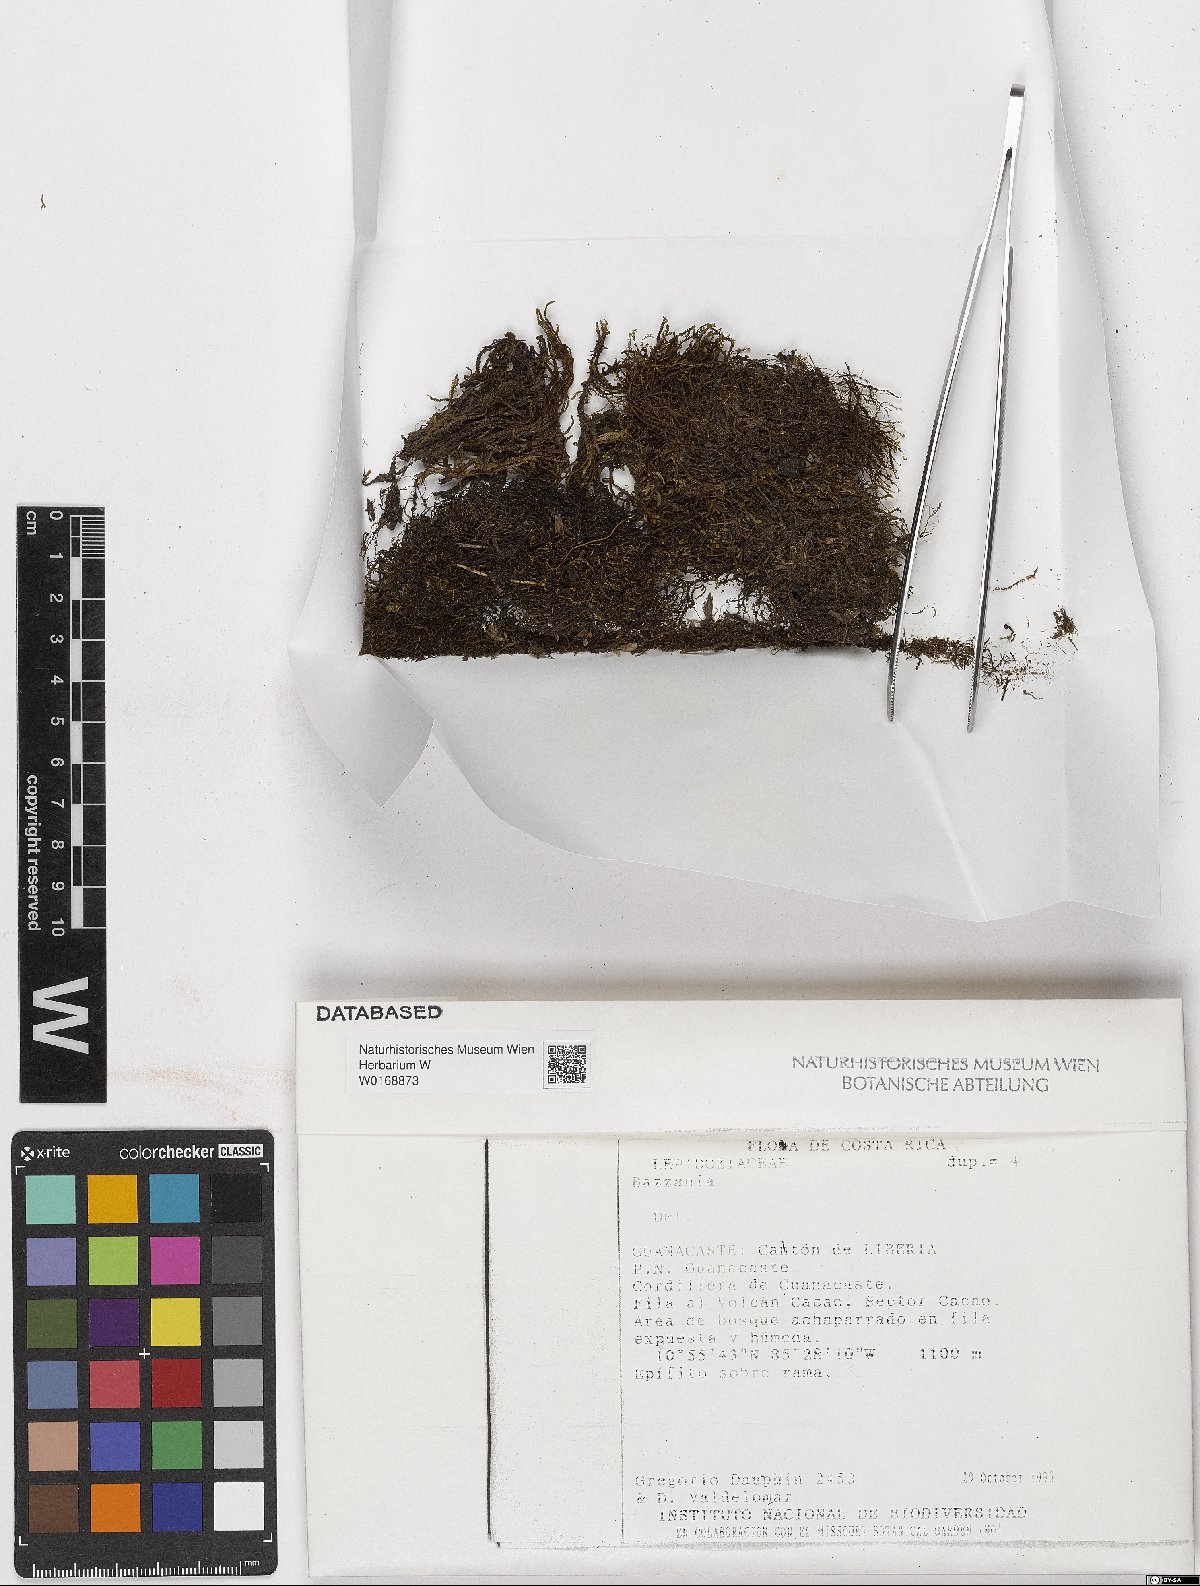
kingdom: Plantae
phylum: Marchantiophyta
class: Jungermanniopsida
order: Jungermanniales
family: Lepidoziaceae
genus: Bazzania
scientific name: Bazzania
